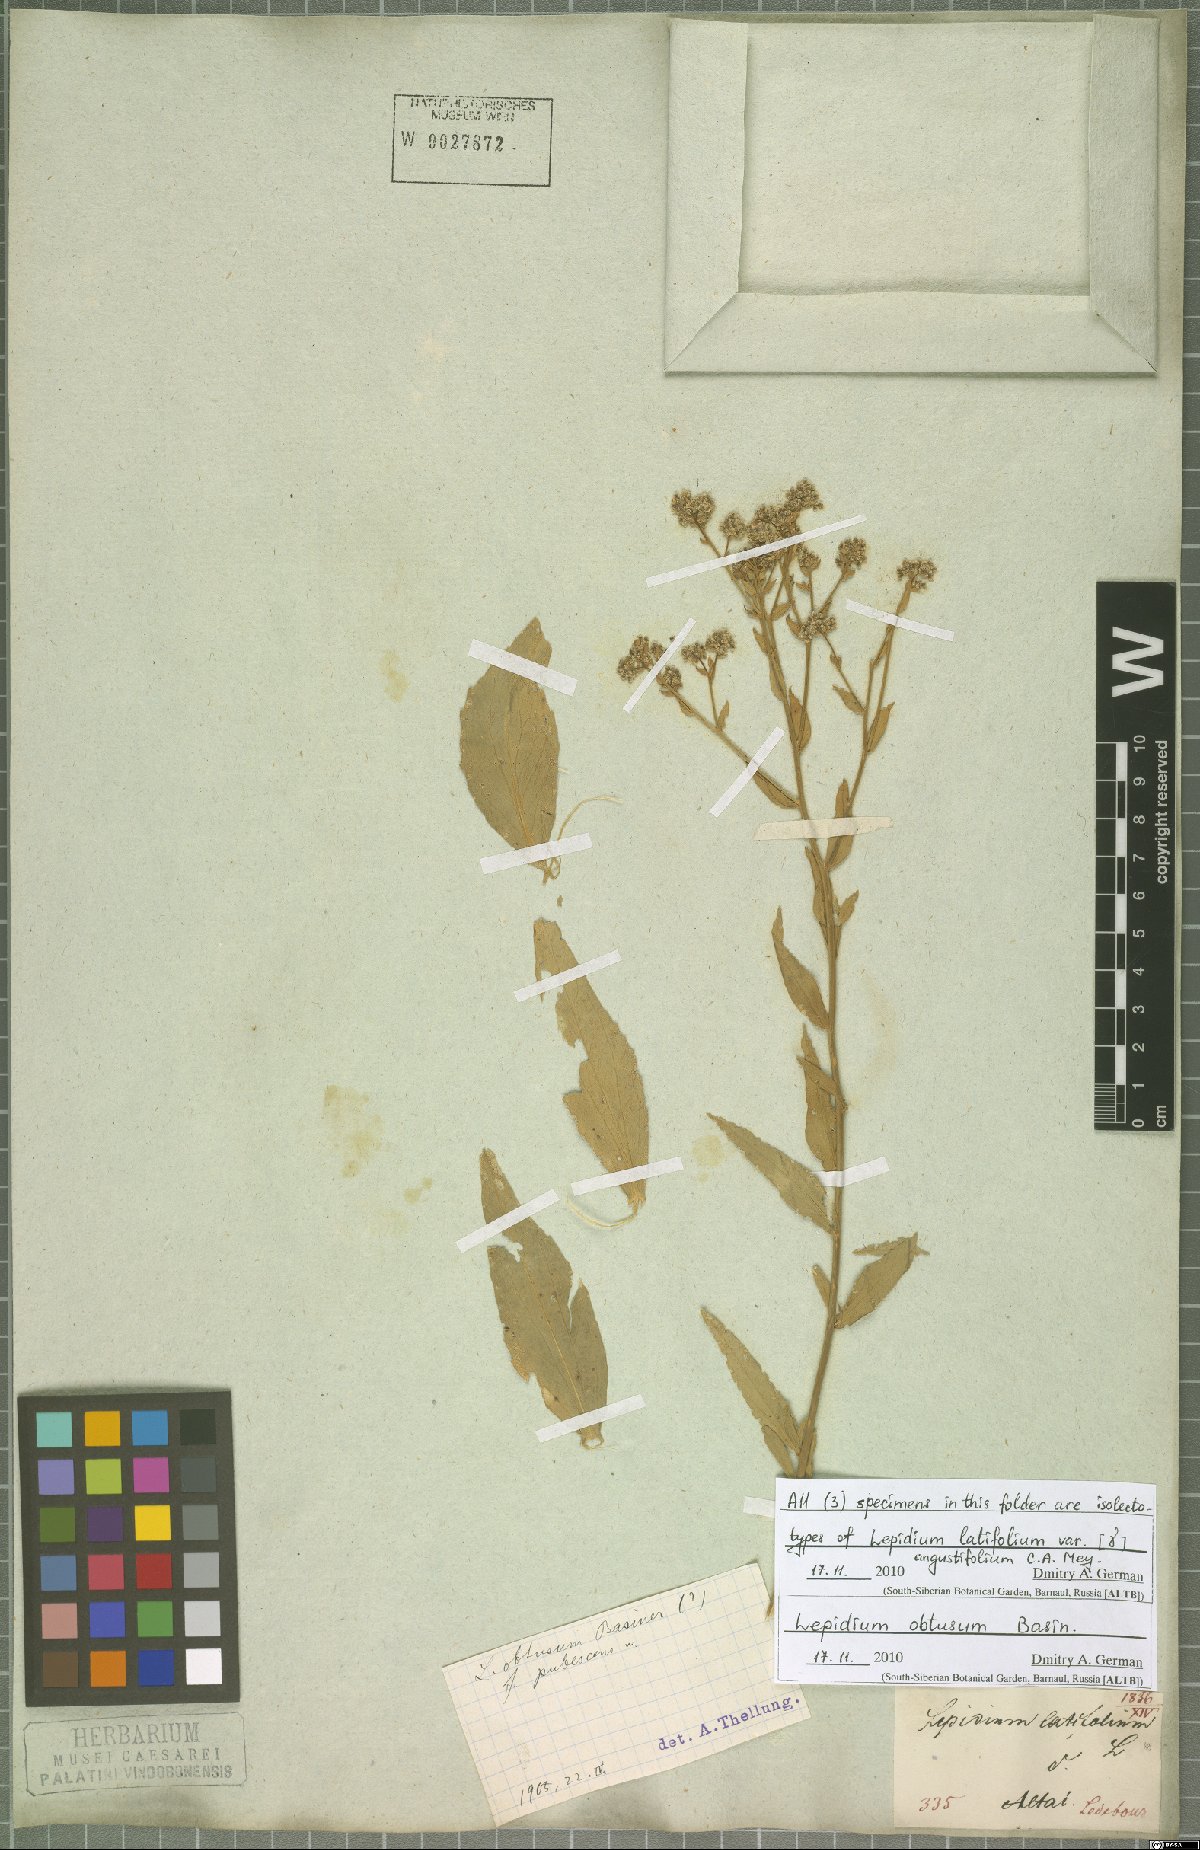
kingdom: Plantae
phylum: Tracheophyta
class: Magnoliopsida
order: Brassicales
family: Brassicaceae
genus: Lepidium
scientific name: Lepidium latifolium
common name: Dittander
